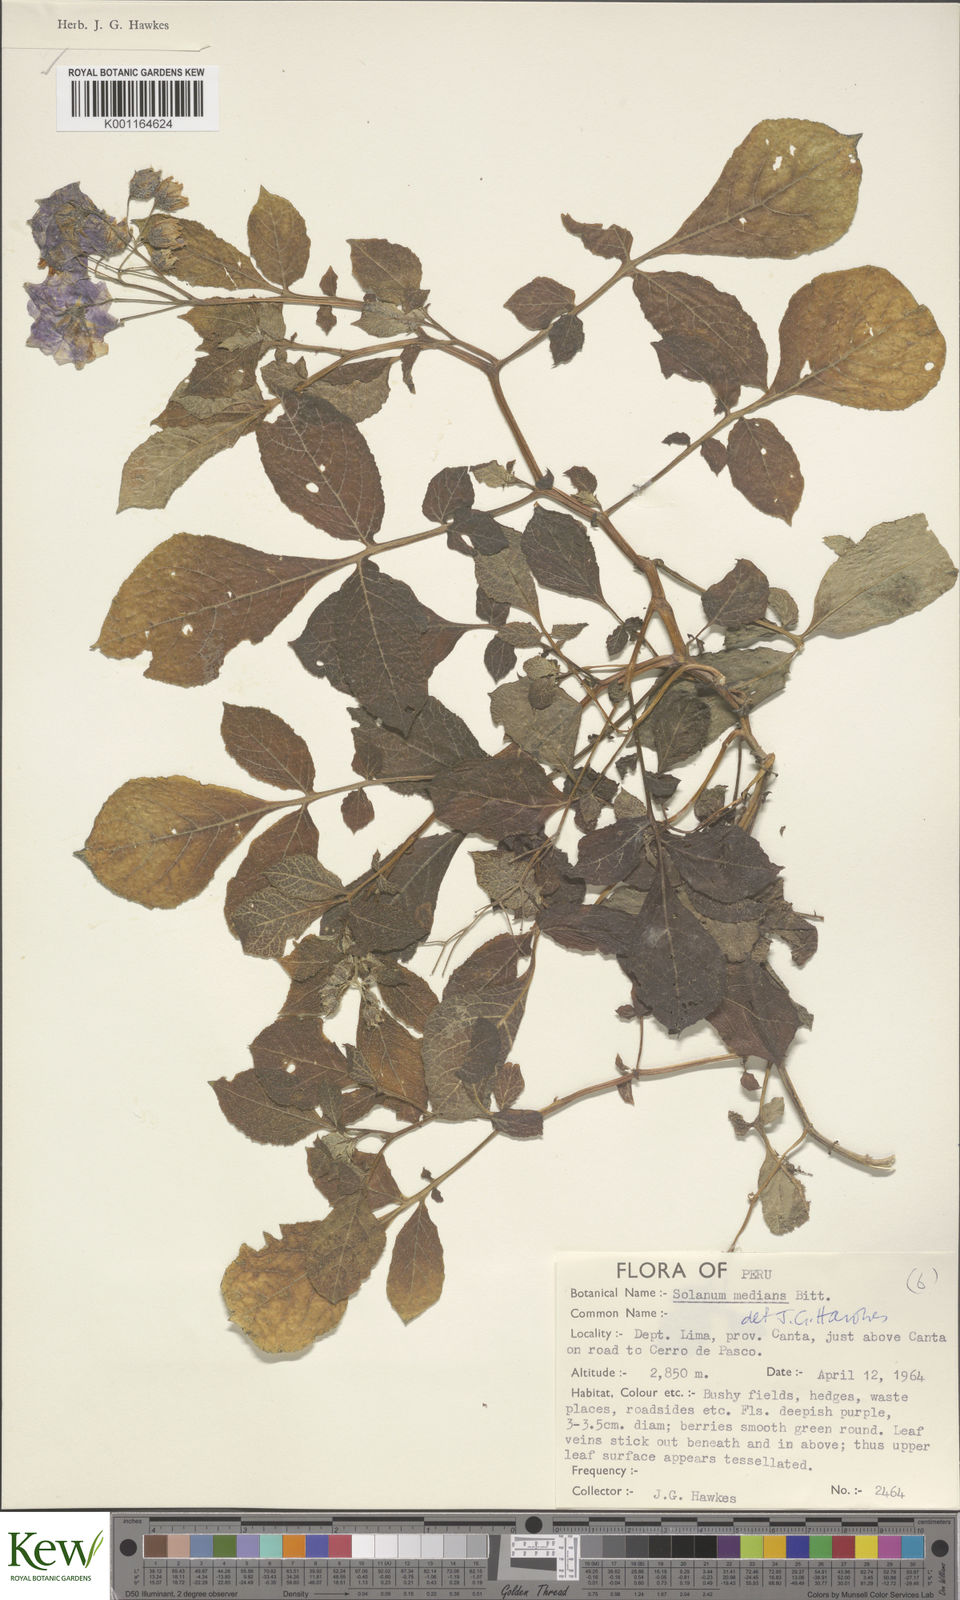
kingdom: Plantae
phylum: Tracheophyta
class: Magnoliopsida
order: Solanales
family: Solanaceae
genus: Solanum
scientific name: Solanum medians
